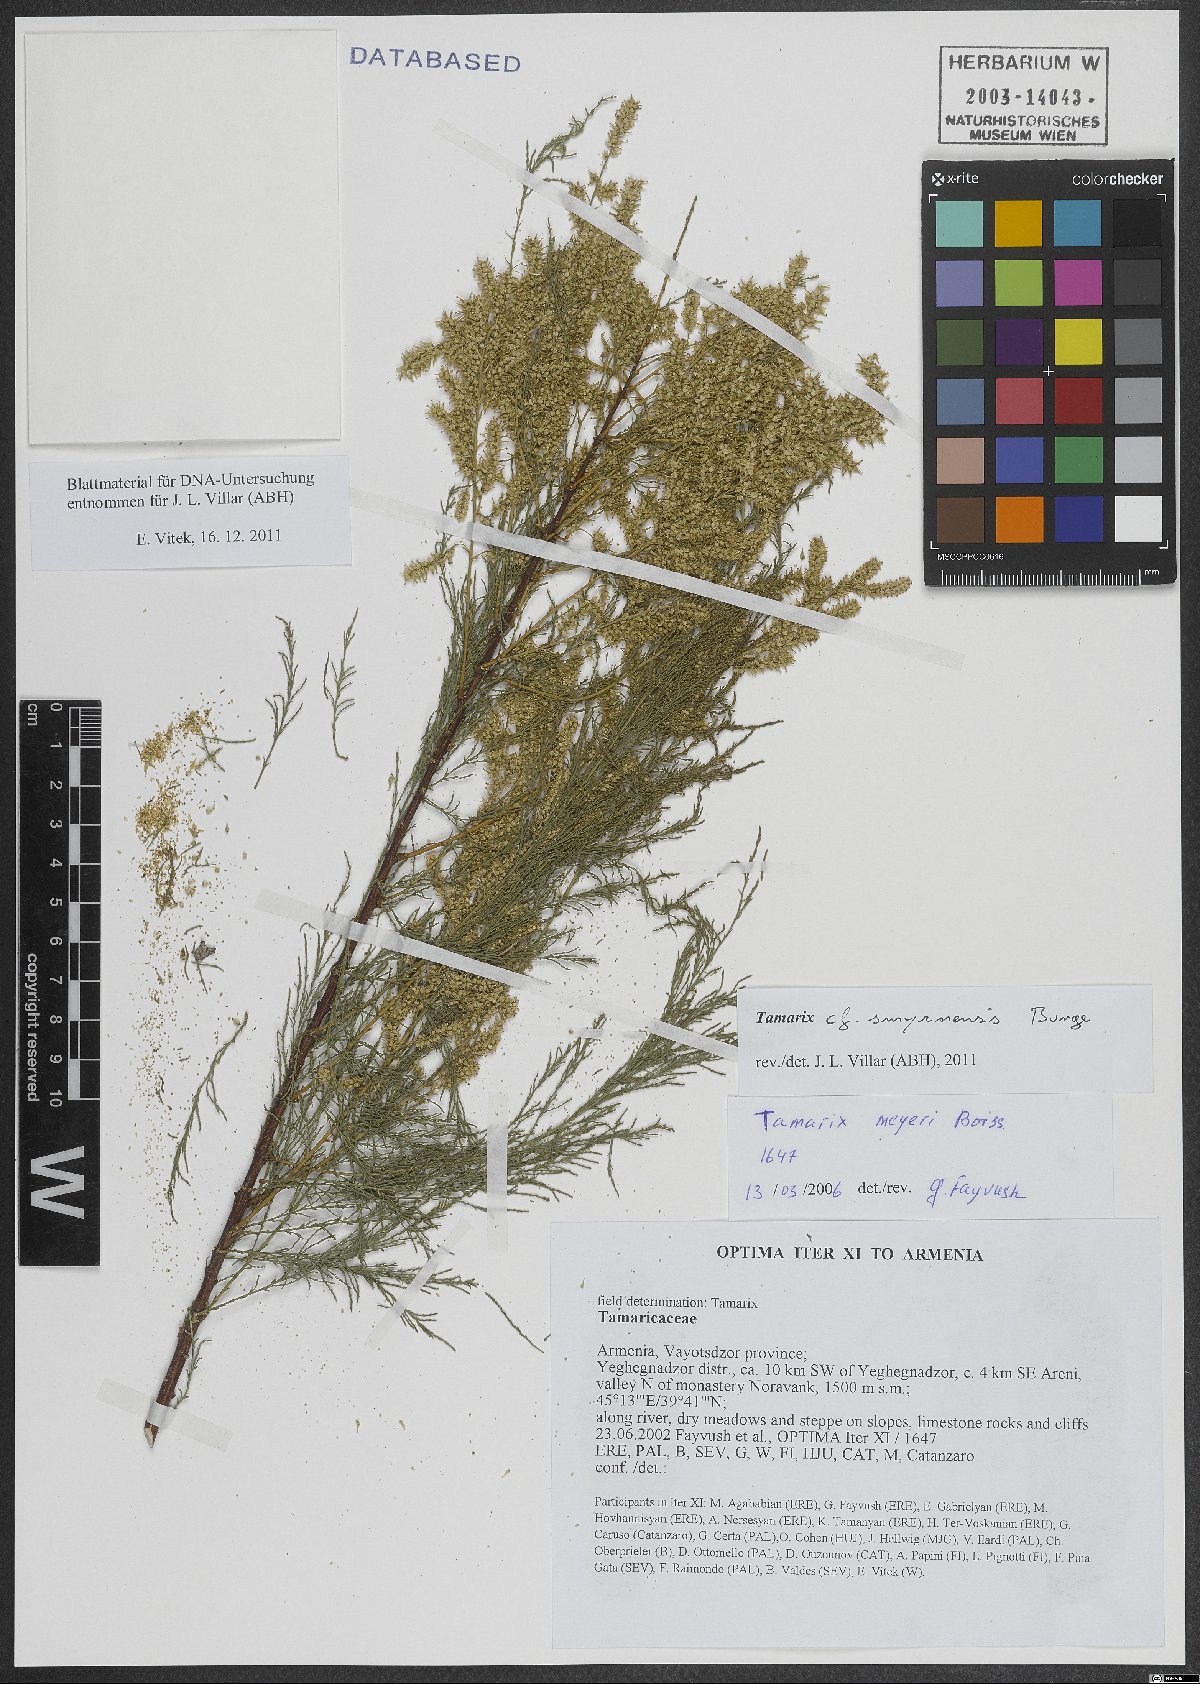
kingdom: Plantae
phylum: Tracheophyta
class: Magnoliopsida
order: Caryophyllales
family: Tamaricaceae
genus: Tamarix
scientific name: Tamarix smyrnensis
